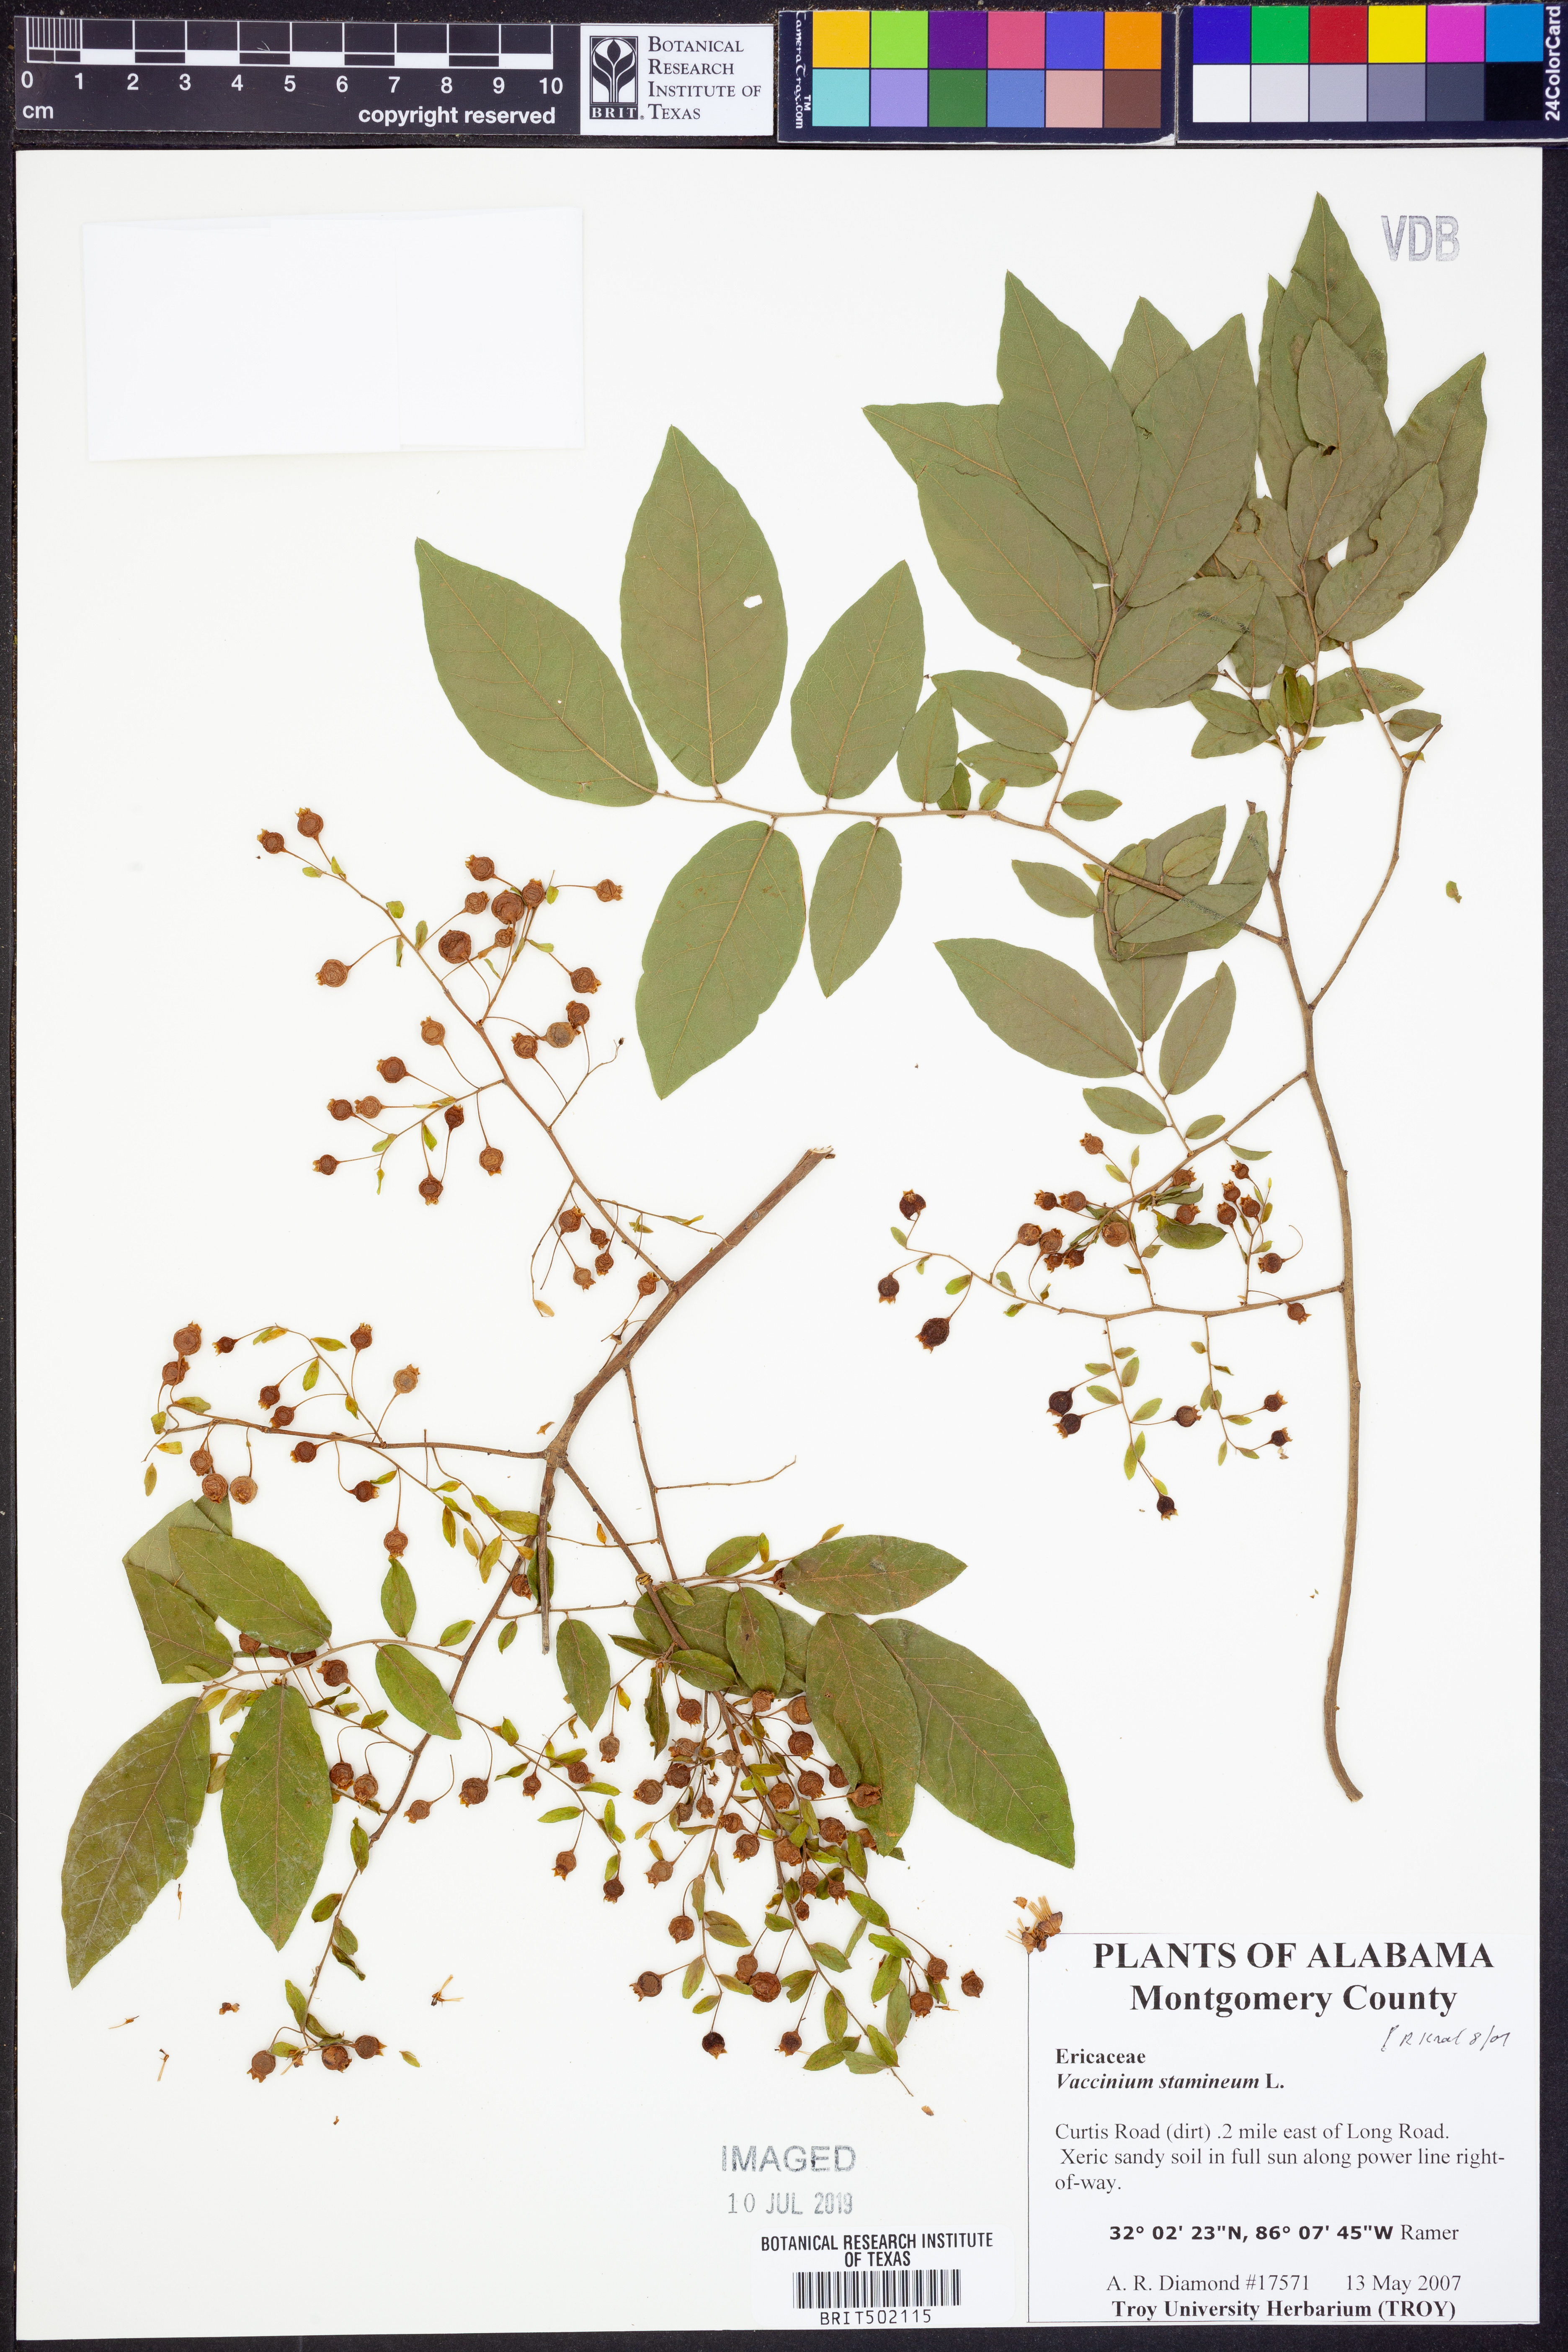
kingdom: Plantae
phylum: Tracheophyta
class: Magnoliopsida
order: Ericales
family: Ericaceae
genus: Vaccinium
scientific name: Vaccinium stamineum
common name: Deerberry
